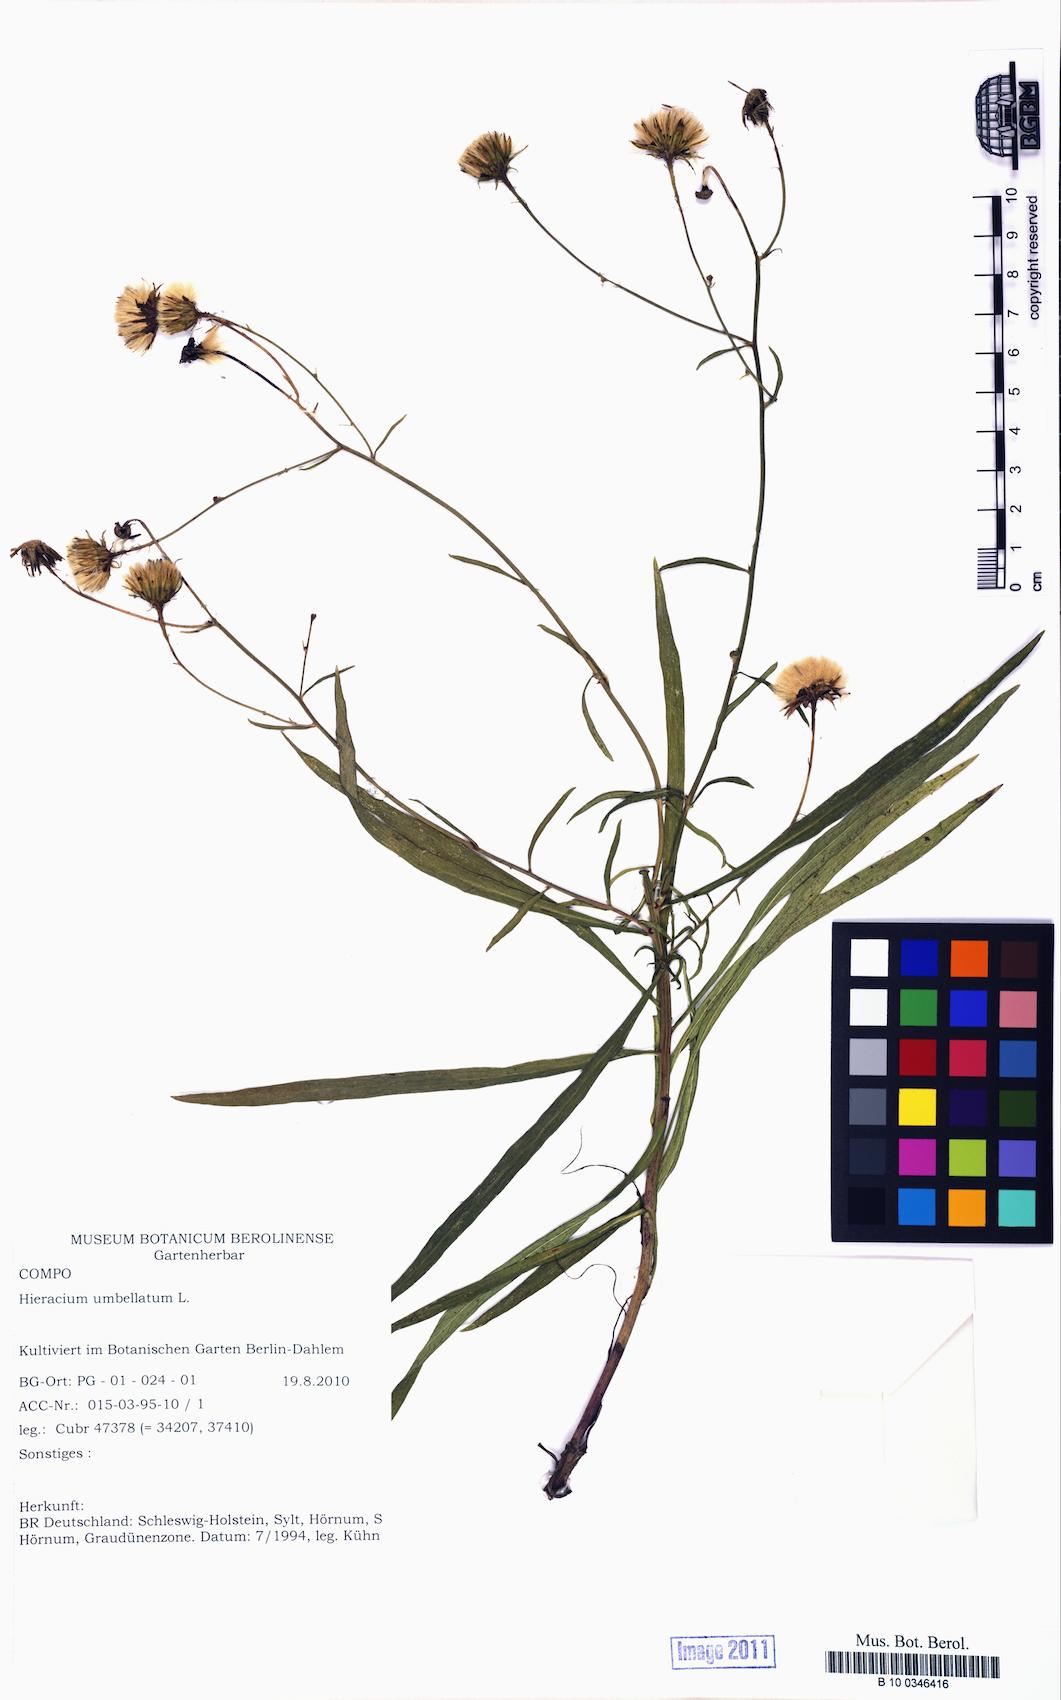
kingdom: Plantae
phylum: Tracheophyta
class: Magnoliopsida
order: Asterales
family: Asteraceae
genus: Hieracium
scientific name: Hieracium umbellatum
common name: Northern hawkweed
